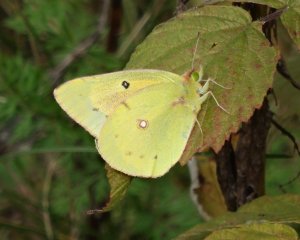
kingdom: Animalia
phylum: Arthropoda
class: Insecta
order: Lepidoptera
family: Pieridae
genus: Colias
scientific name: Colias eurytheme
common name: Orange Sulphur
